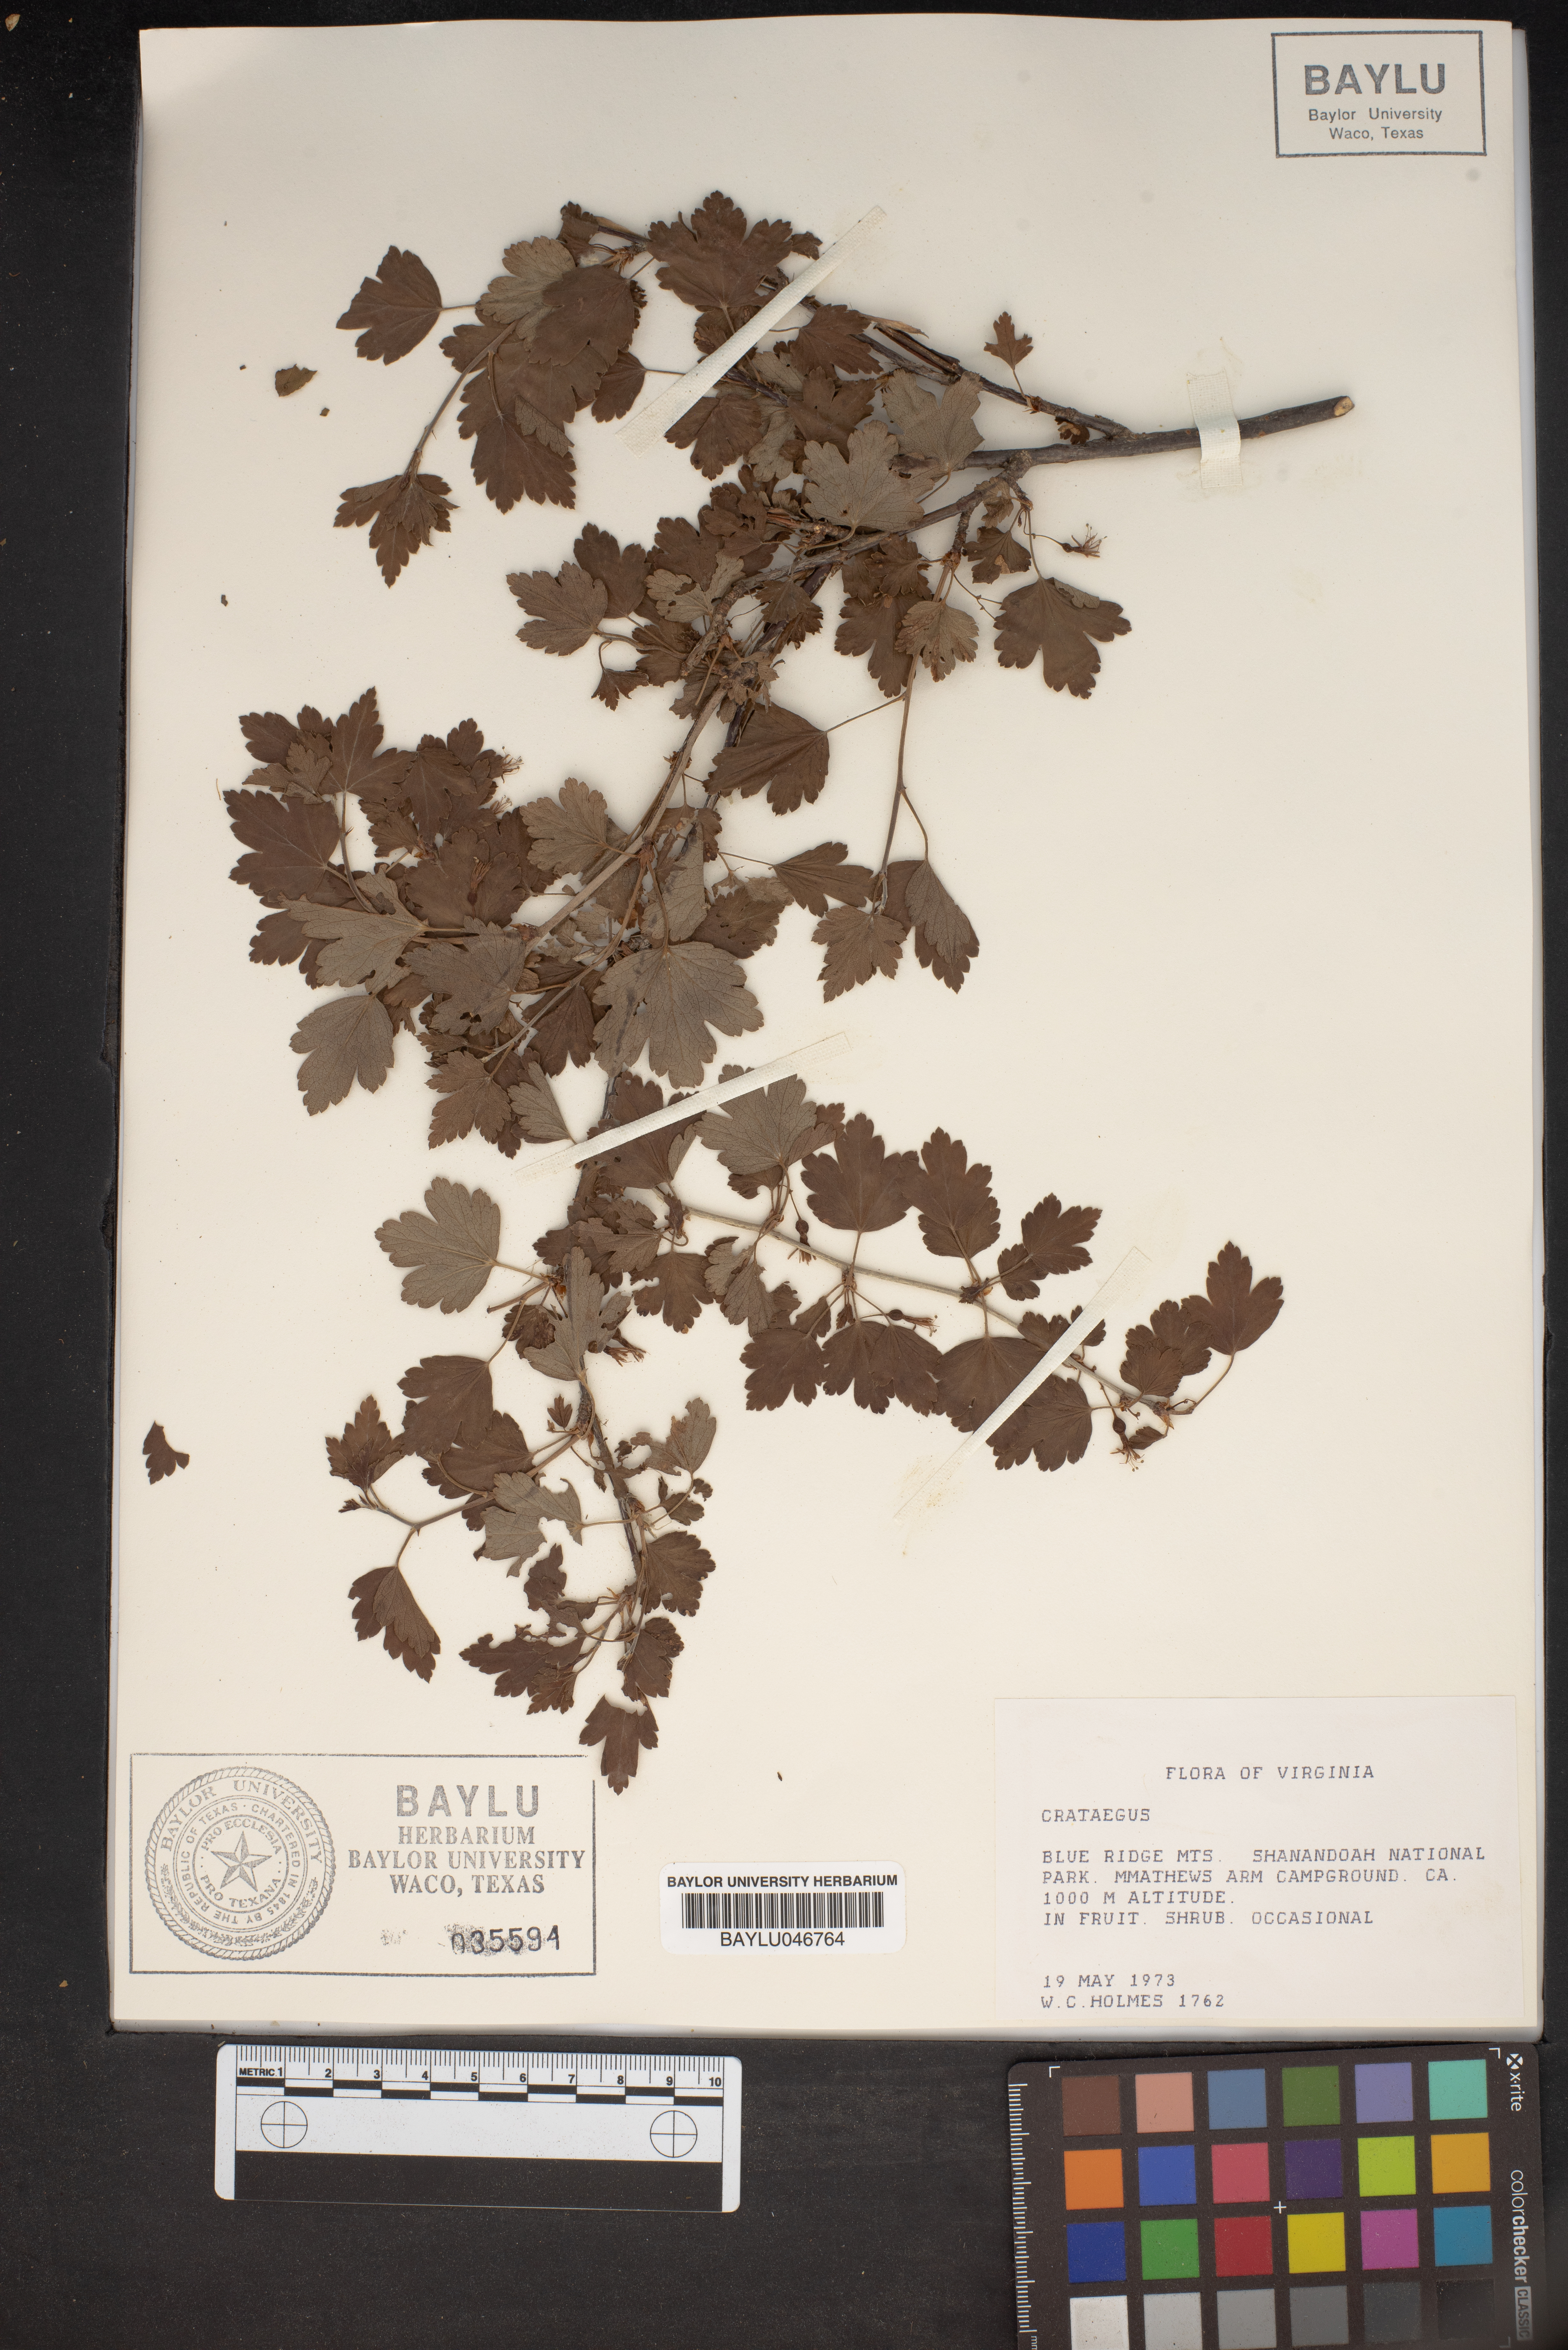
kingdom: Plantae
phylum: Tracheophyta
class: Magnoliopsida
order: Rosales
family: Rosaceae
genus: Crataegus
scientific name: Crataegus
